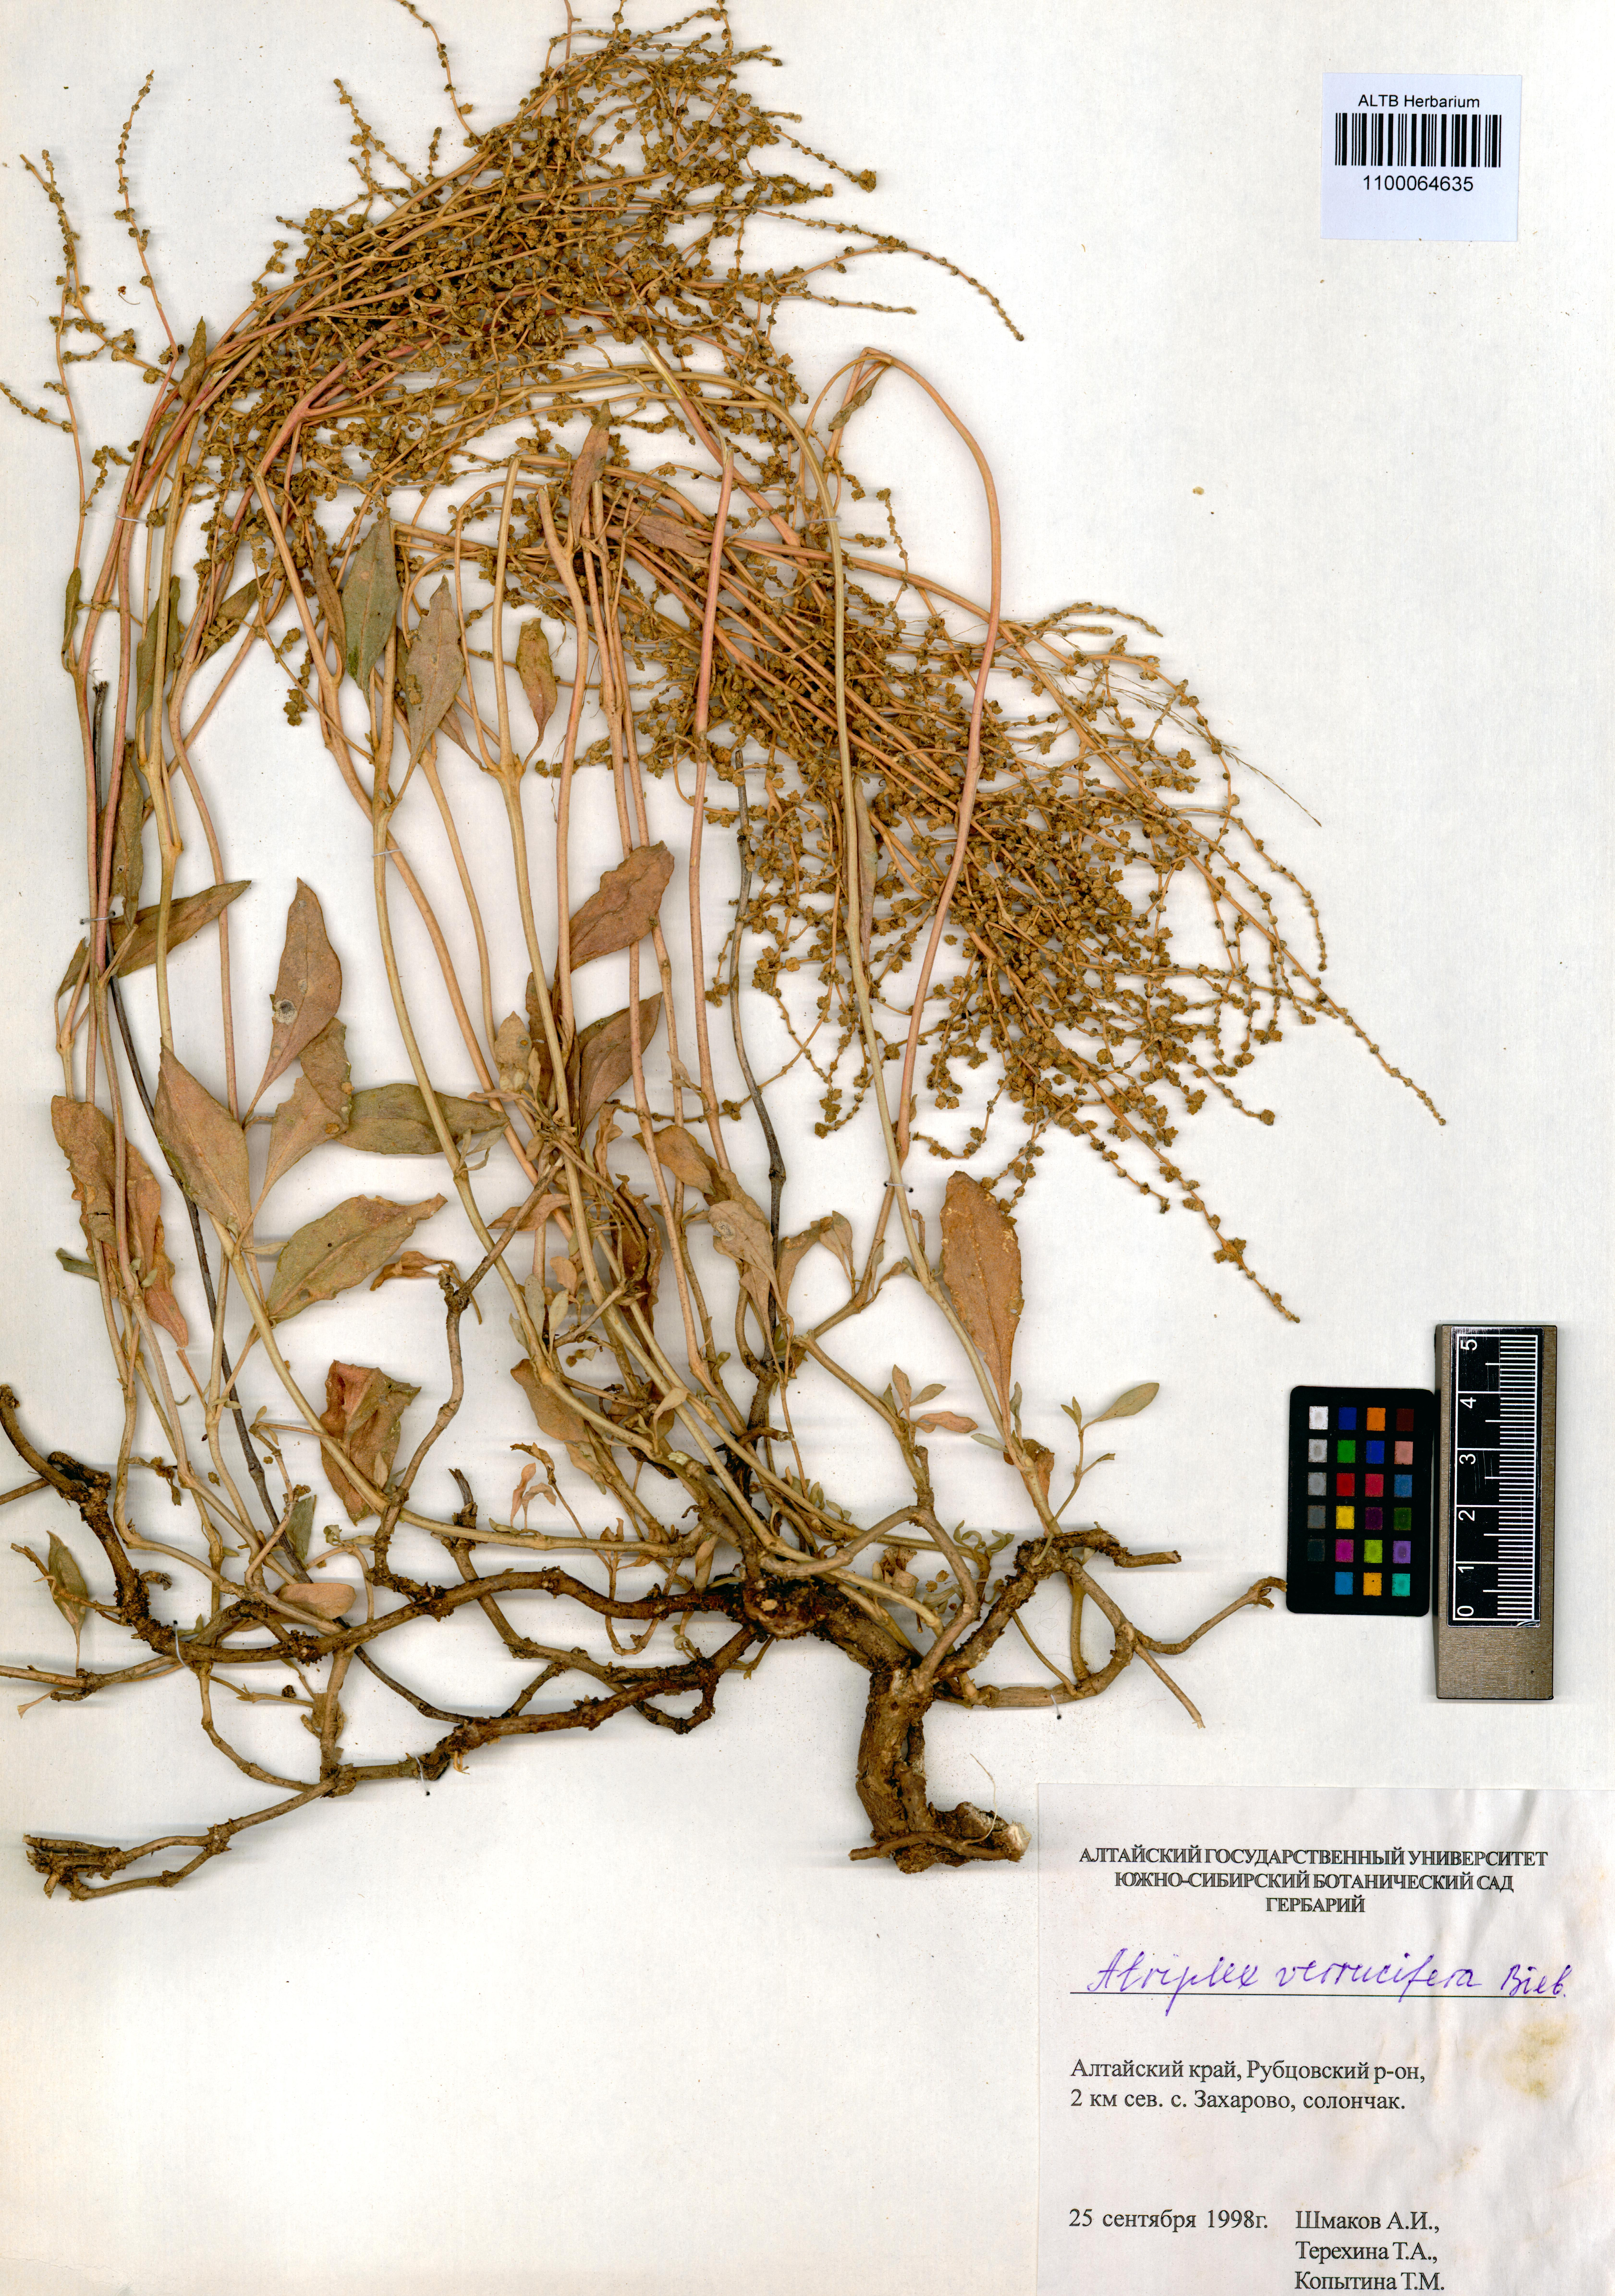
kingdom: Plantae
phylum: Tracheophyta
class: Magnoliopsida
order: Caryophyllales
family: Amaranthaceae
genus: Halimione
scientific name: Halimione verrucifera
